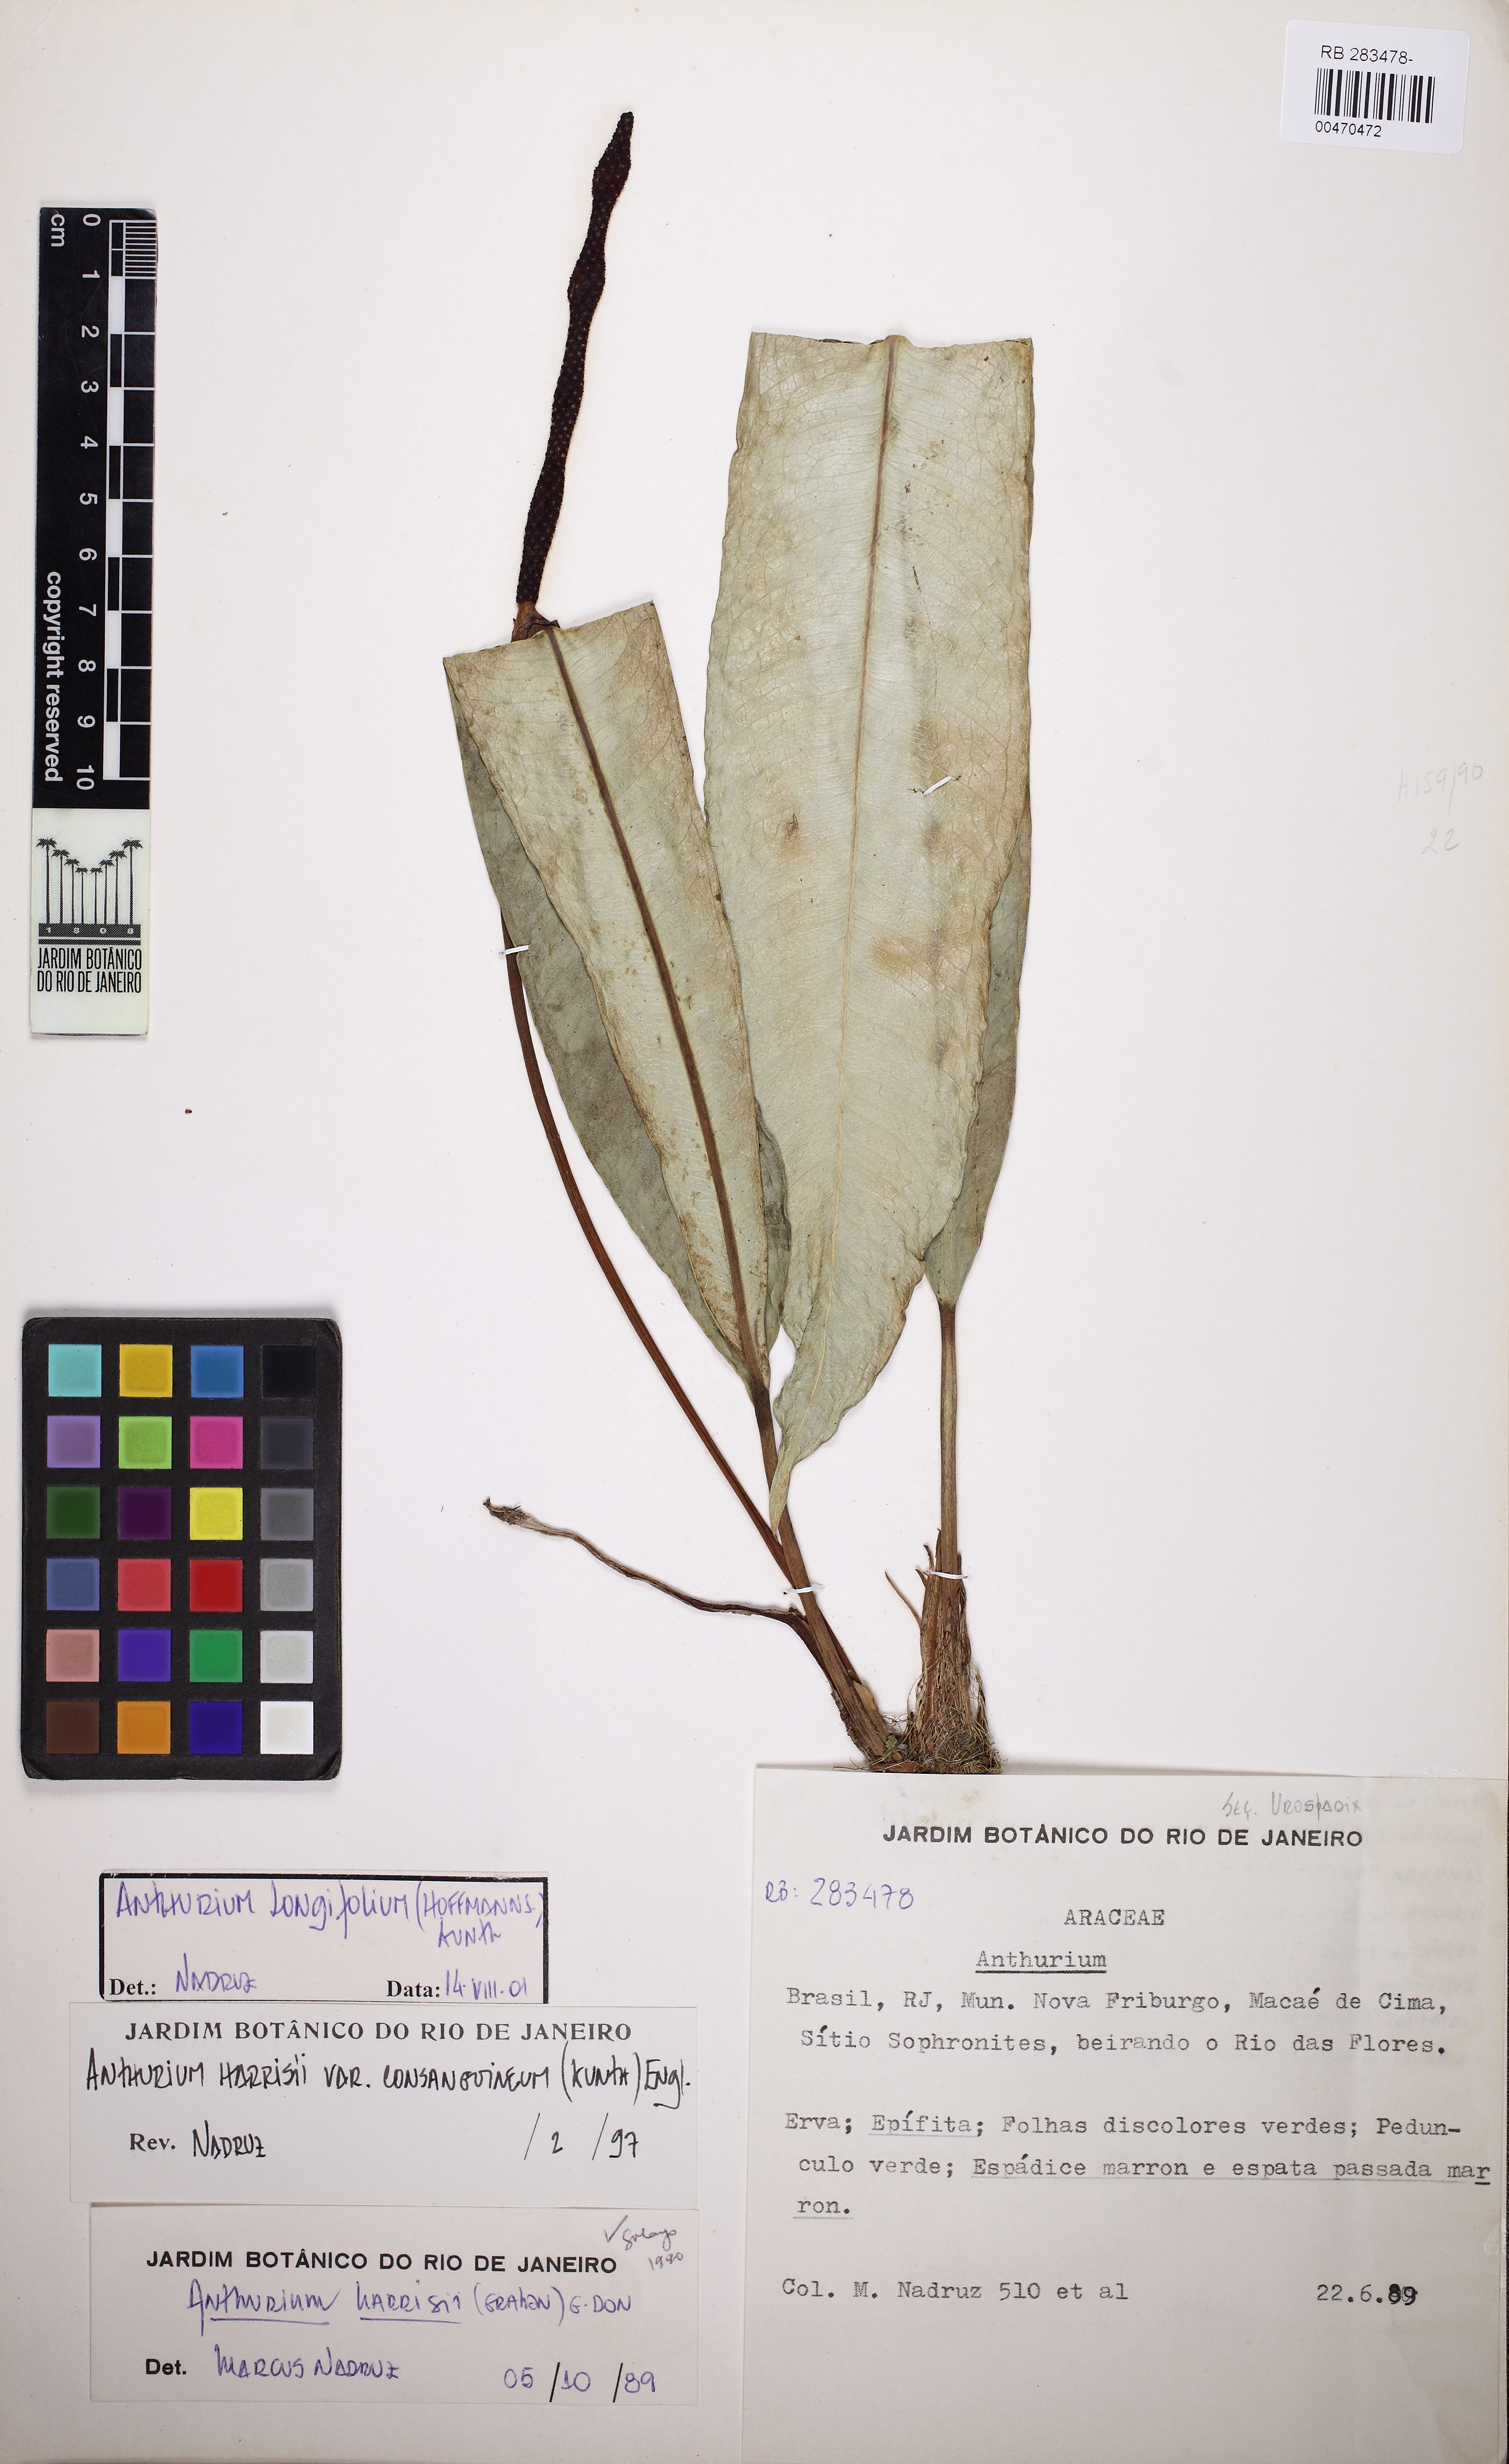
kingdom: Plantae
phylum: Tracheophyta
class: Liliopsida
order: Alismatales
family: Araceae
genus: Anthurium
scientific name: Anthurium longifolium
